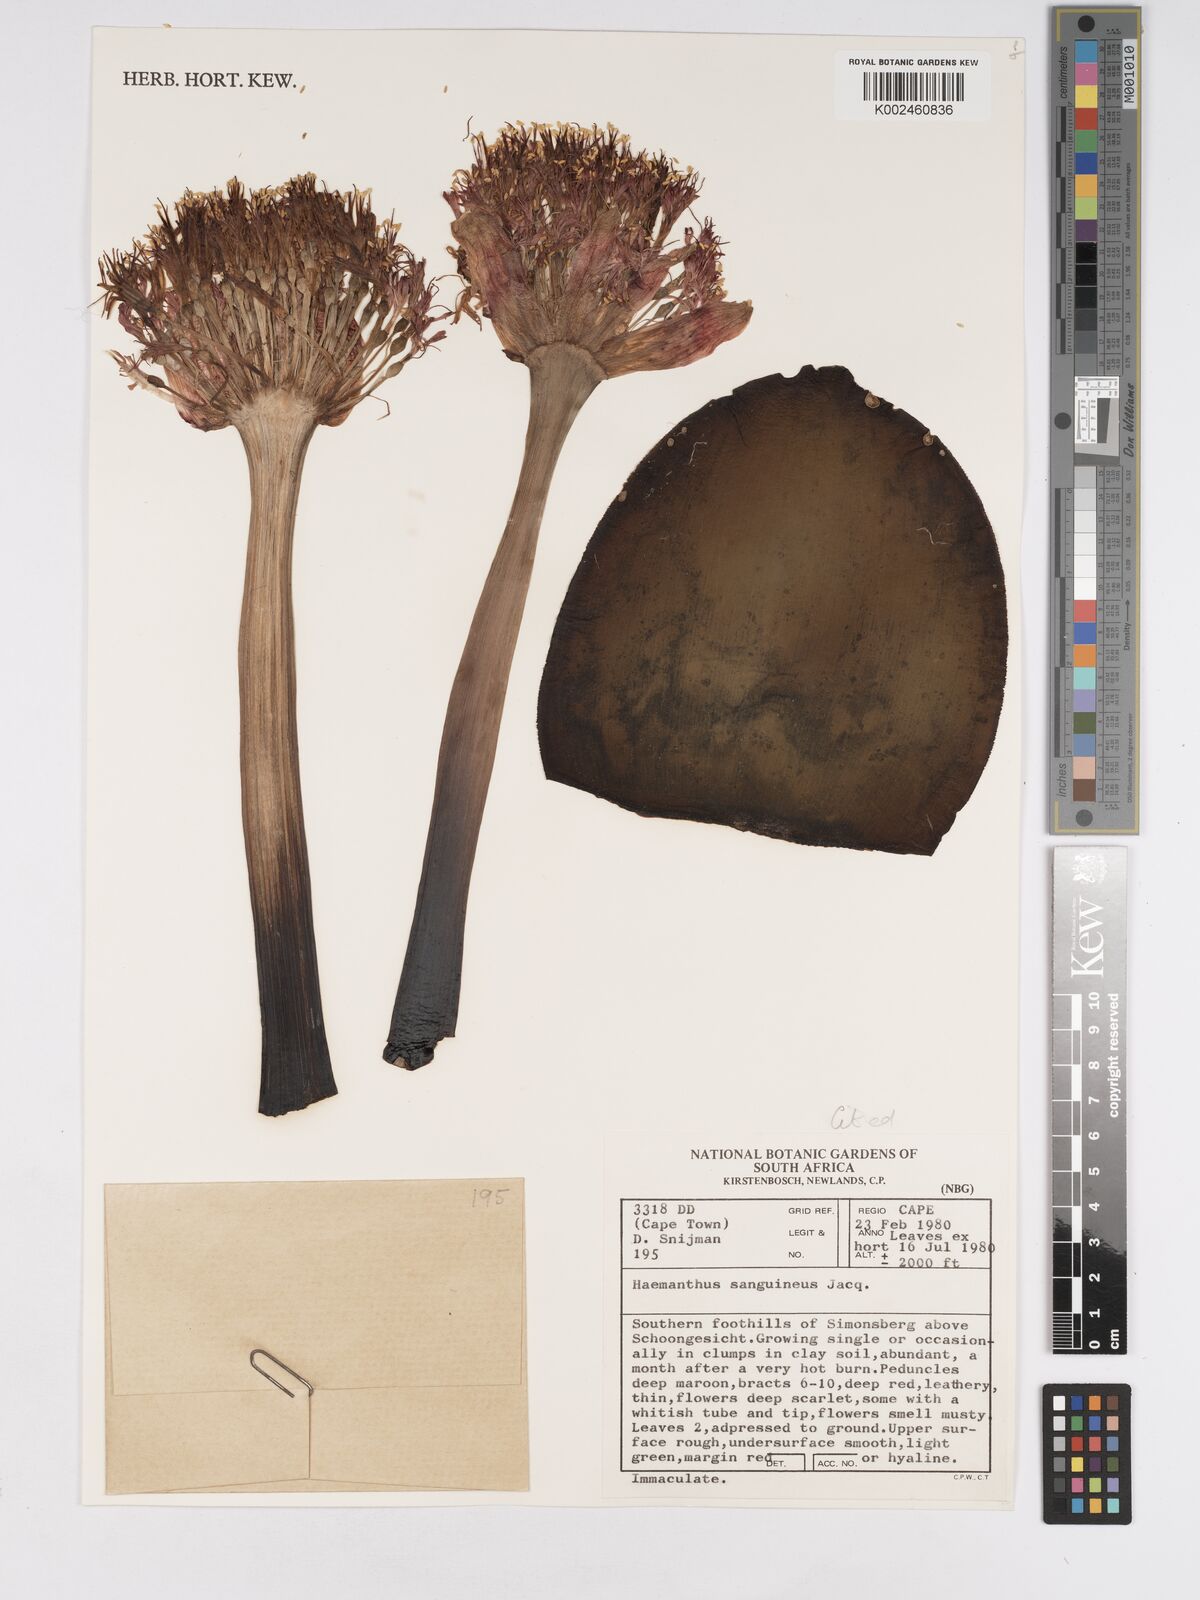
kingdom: Plantae
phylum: Tracheophyta
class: Liliopsida
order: Asparagales
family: Amaryllidaceae
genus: Haemanthus
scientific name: Haemanthus sanguineus
